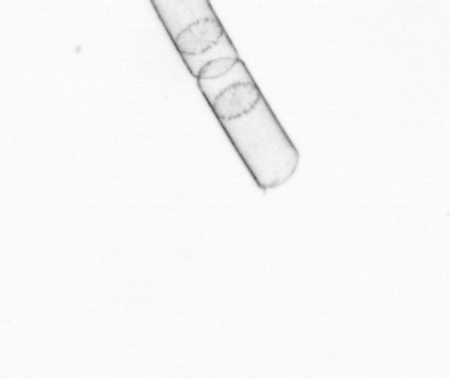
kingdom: Chromista
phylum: Ochrophyta
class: Bacillariophyceae
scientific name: Bacillariophyceae
